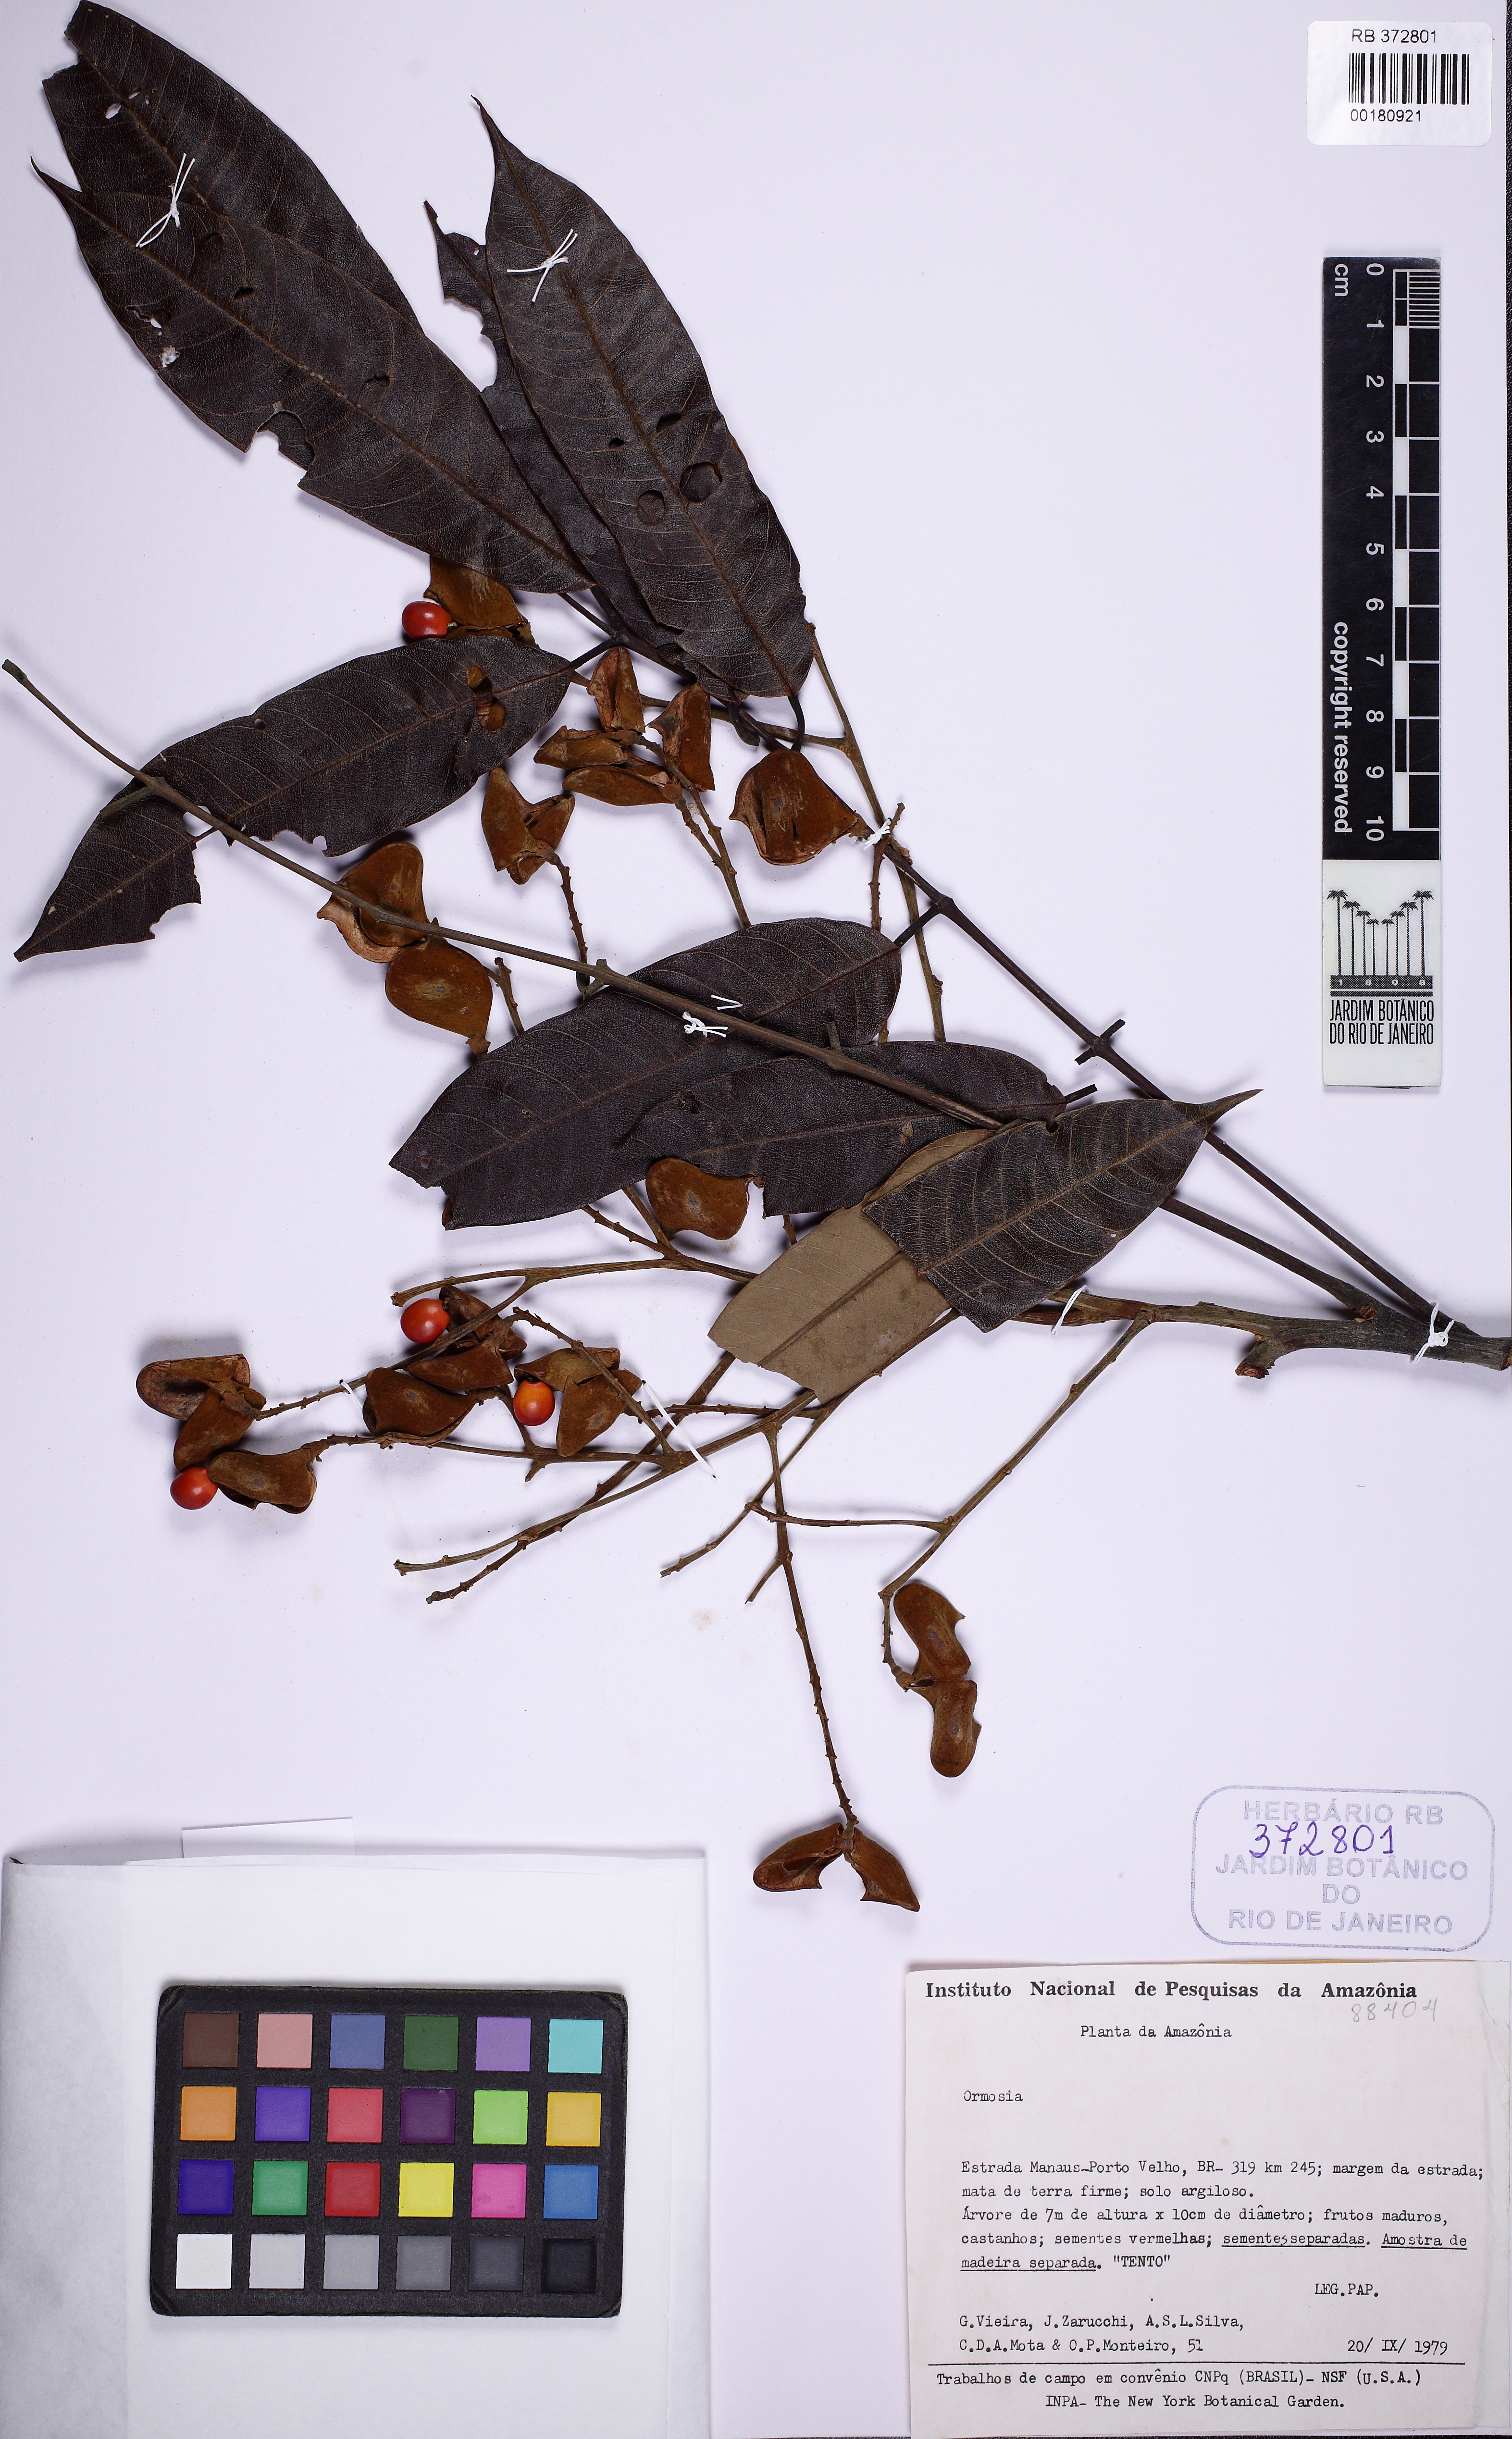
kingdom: Plantae
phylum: Tracheophyta
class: Magnoliopsida
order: Fabales
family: Fabaceae
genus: Ormosia
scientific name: Ormosia
